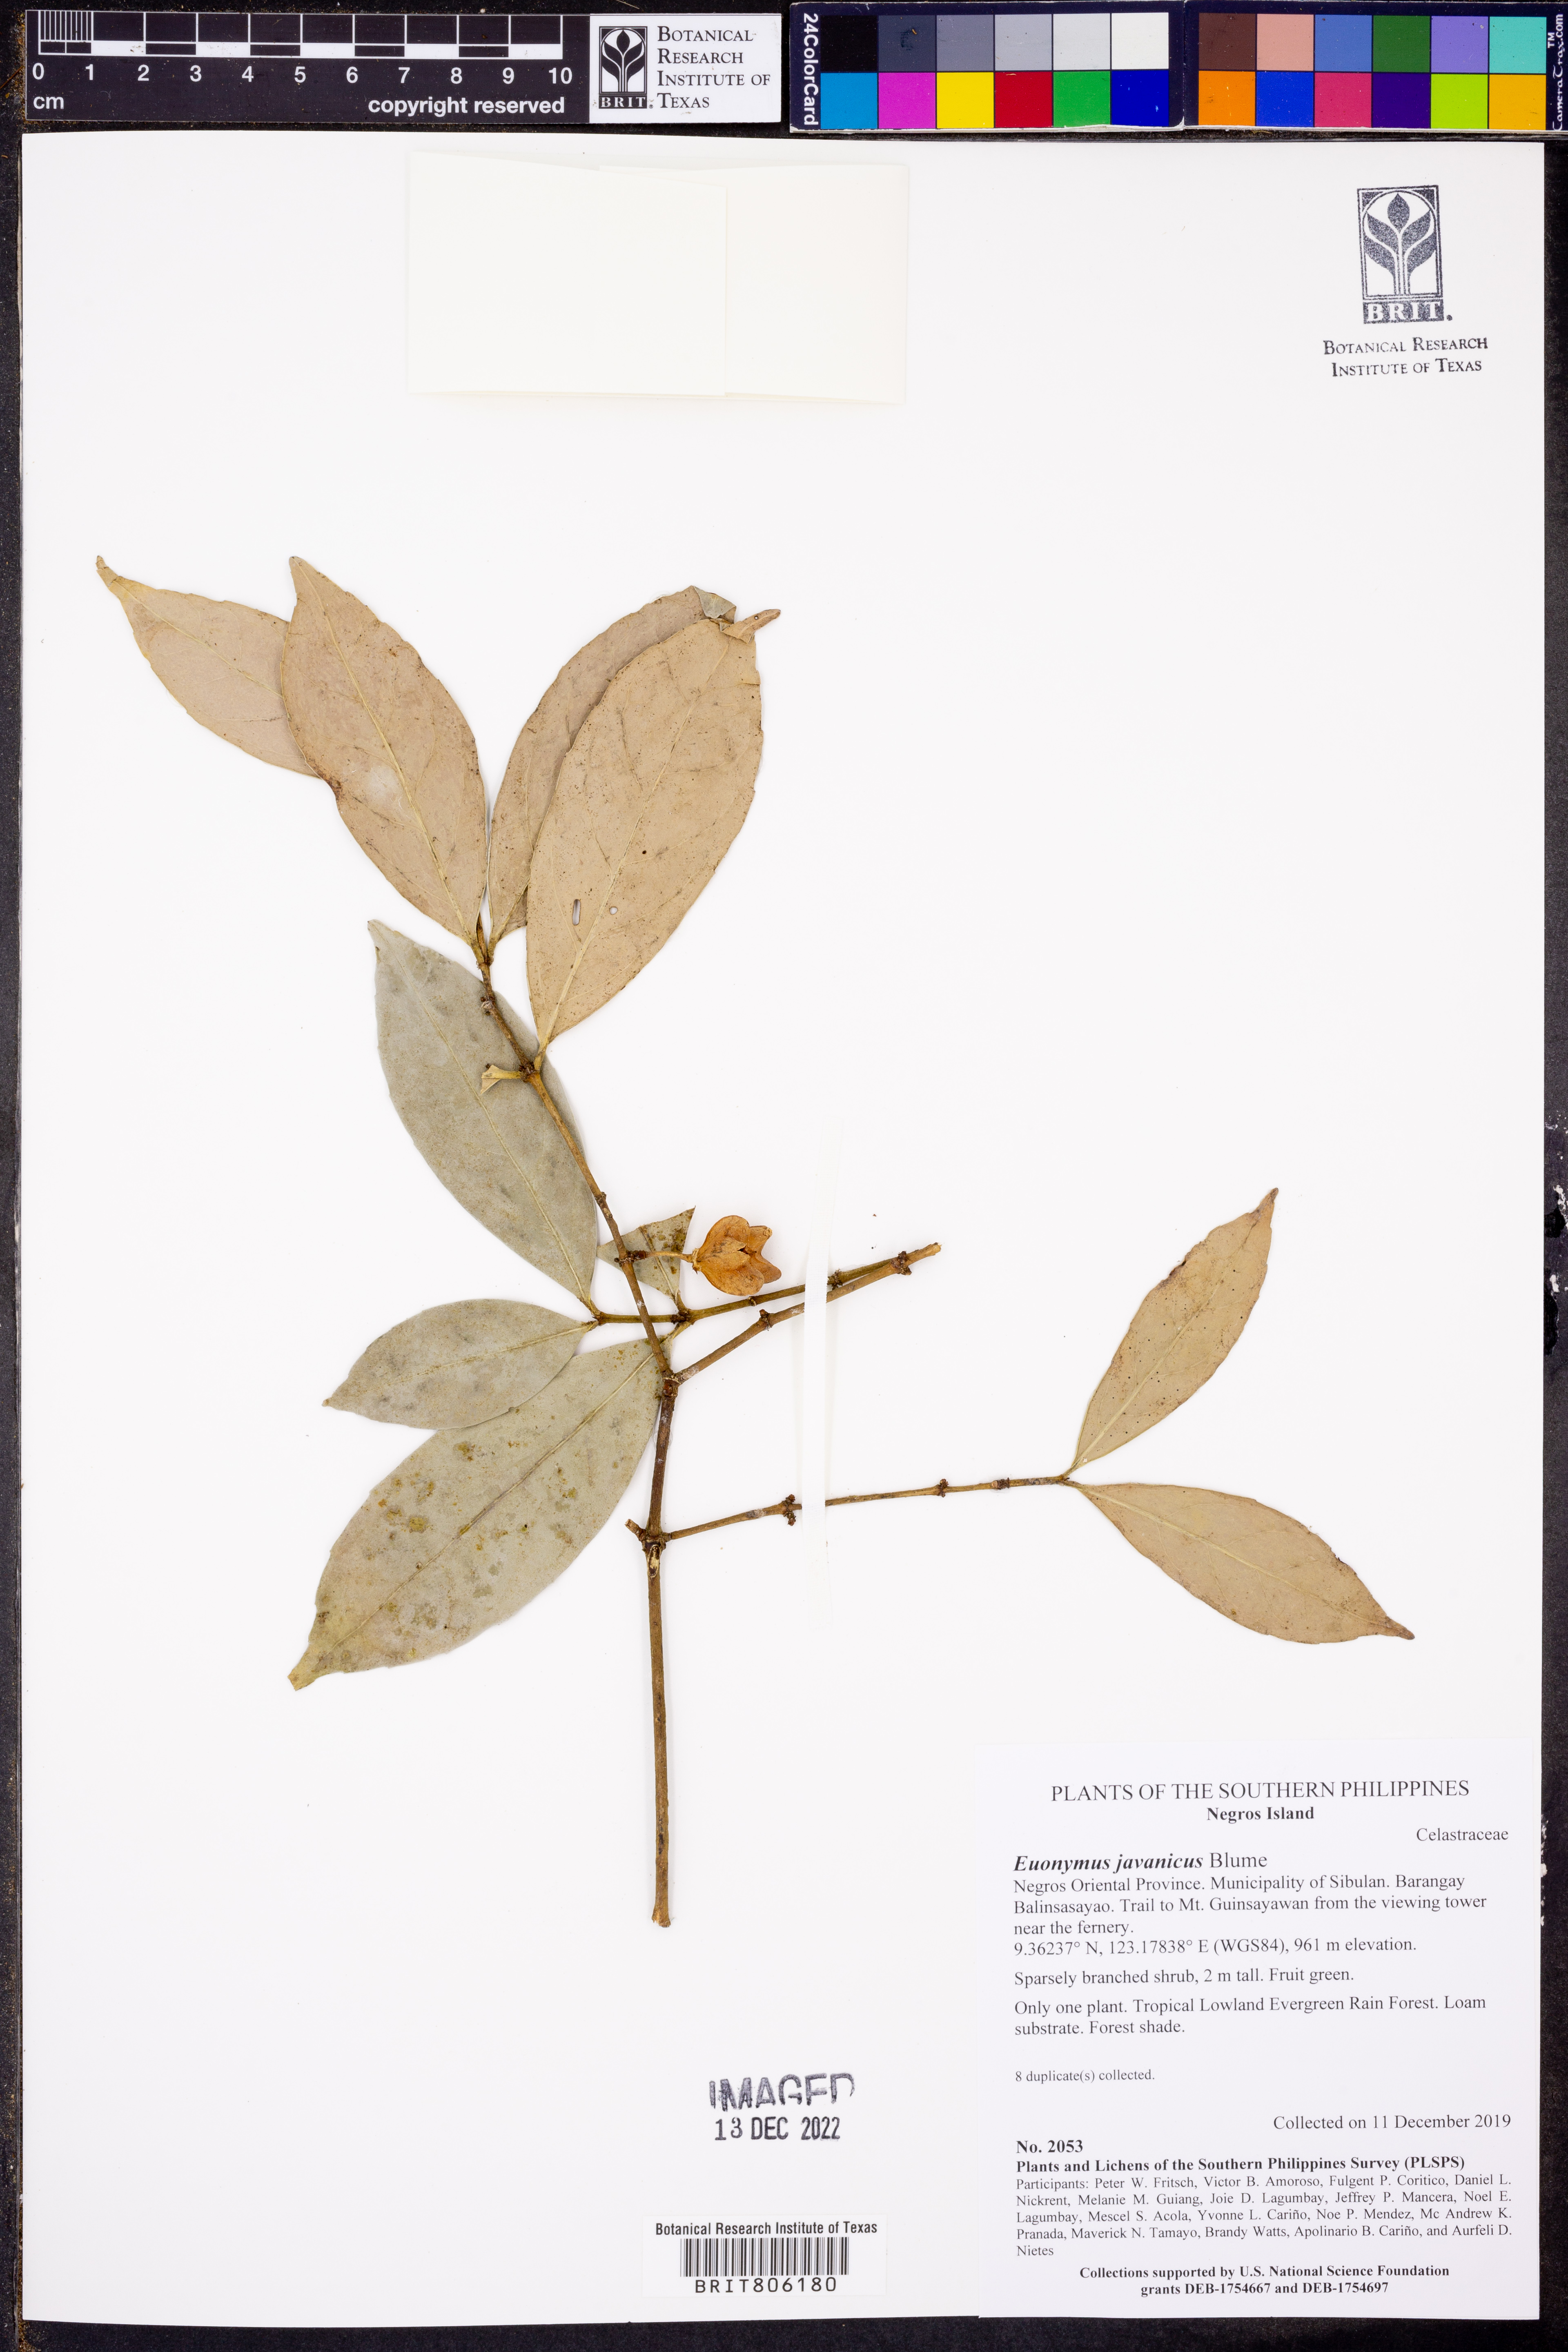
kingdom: Plantae
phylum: Tracheophyta
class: Magnoliopsida
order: Celastrales
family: Celastraceae
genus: Euonymus
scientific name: Euonymus indicus
